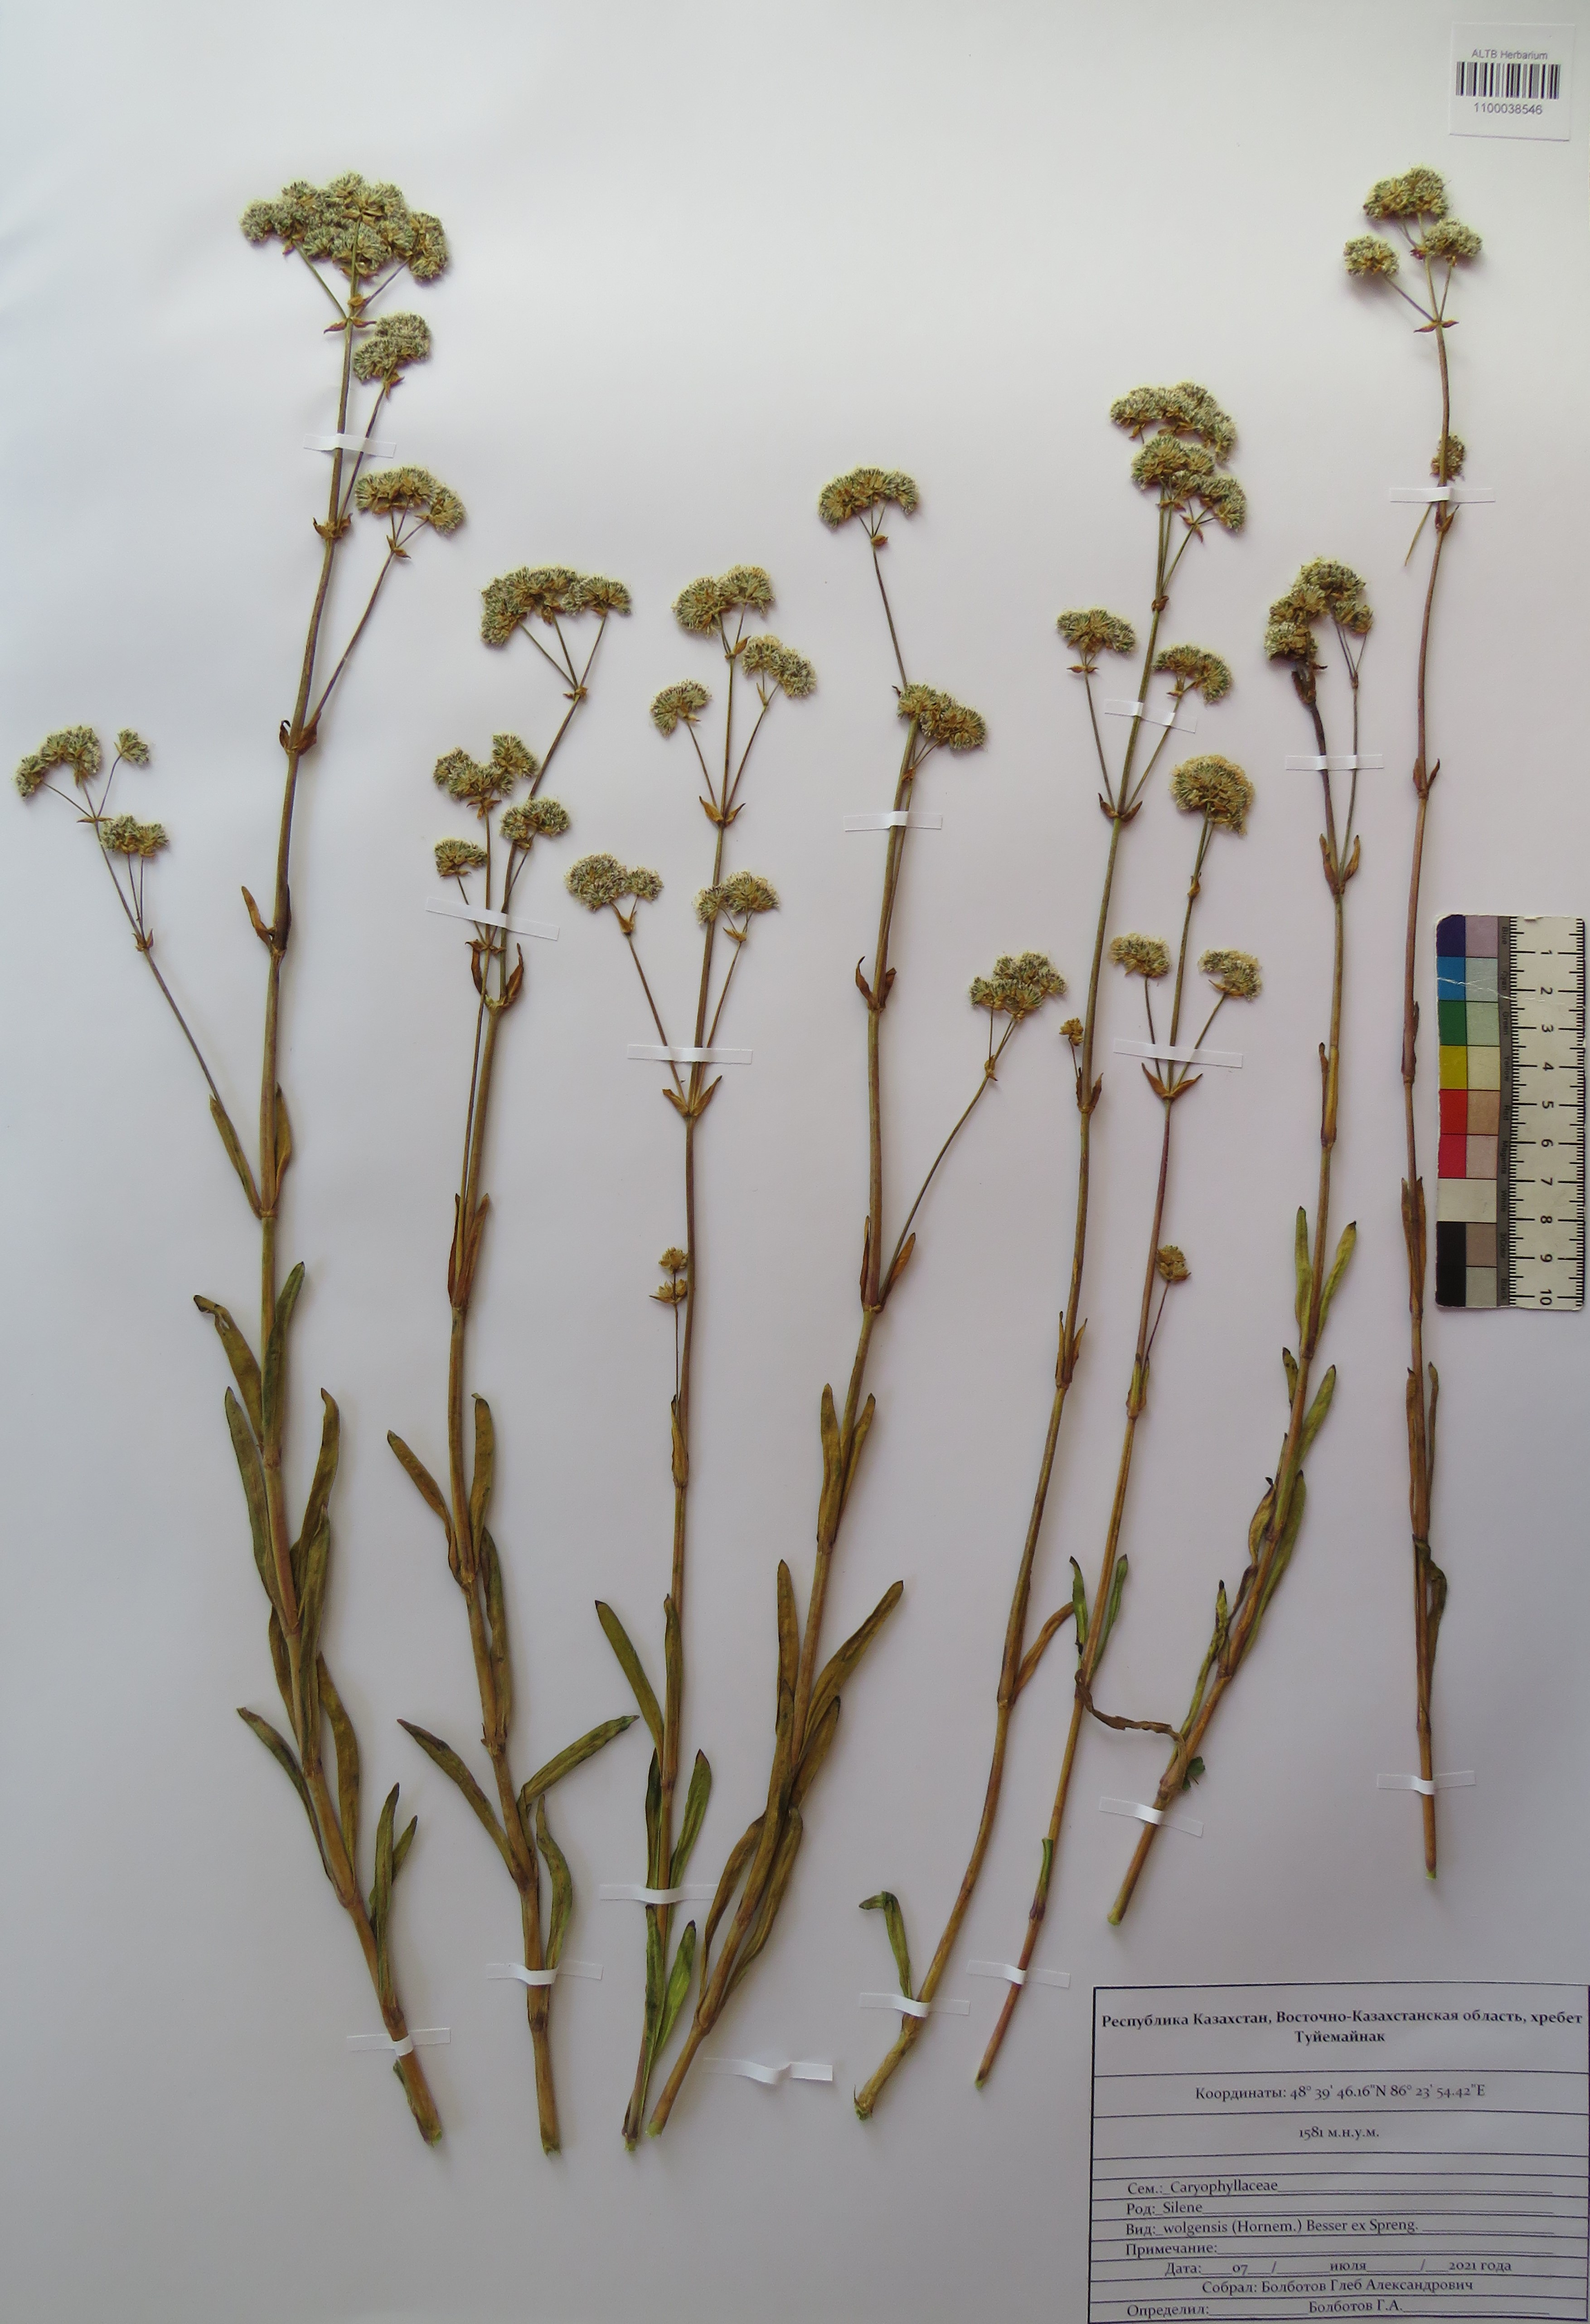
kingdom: Plantae
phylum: Tracheophyta
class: Magnoliopsida
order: Caryophyllales
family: Caryophyllaceae
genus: Silene
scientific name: Silene wolgensis
